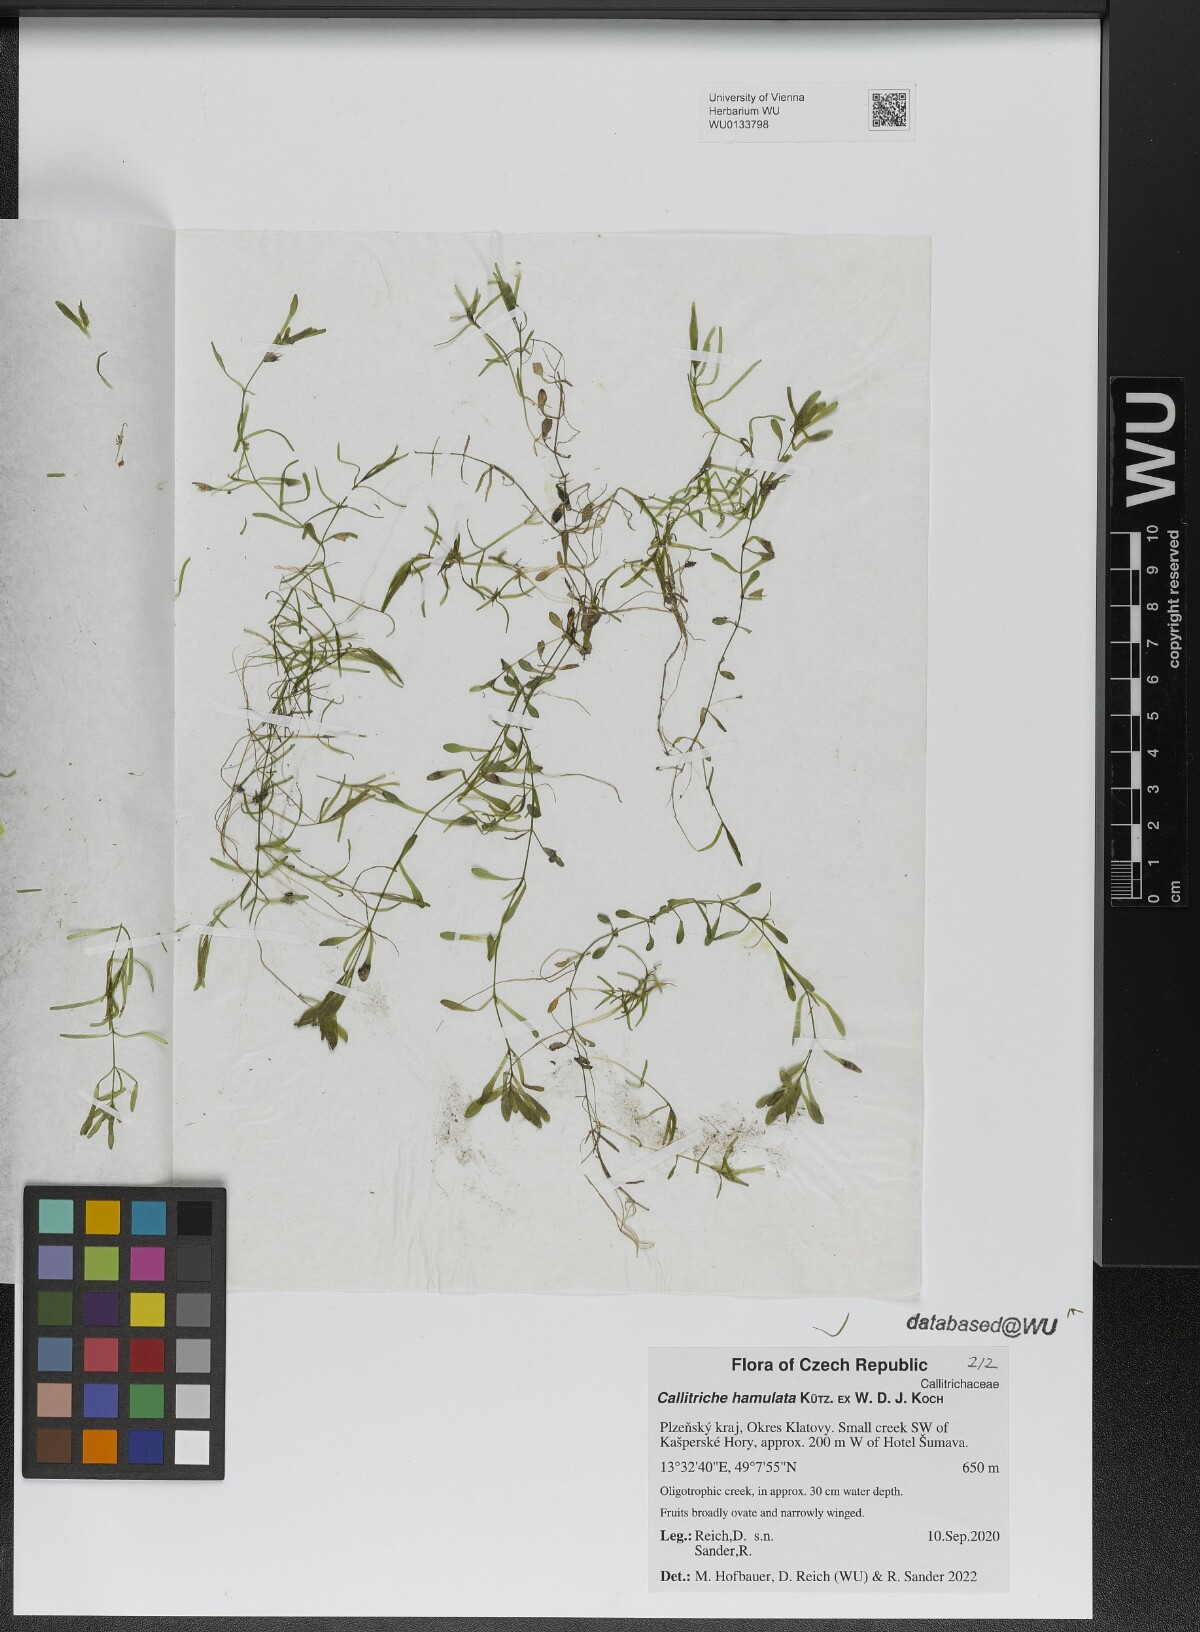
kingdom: Plantae
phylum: Tracheophyta
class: Magnoliopsida
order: Lamiales
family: Plantaginaceae
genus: Callitriche
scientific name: Callitriche hamulata
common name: Intermediate water-starwort
